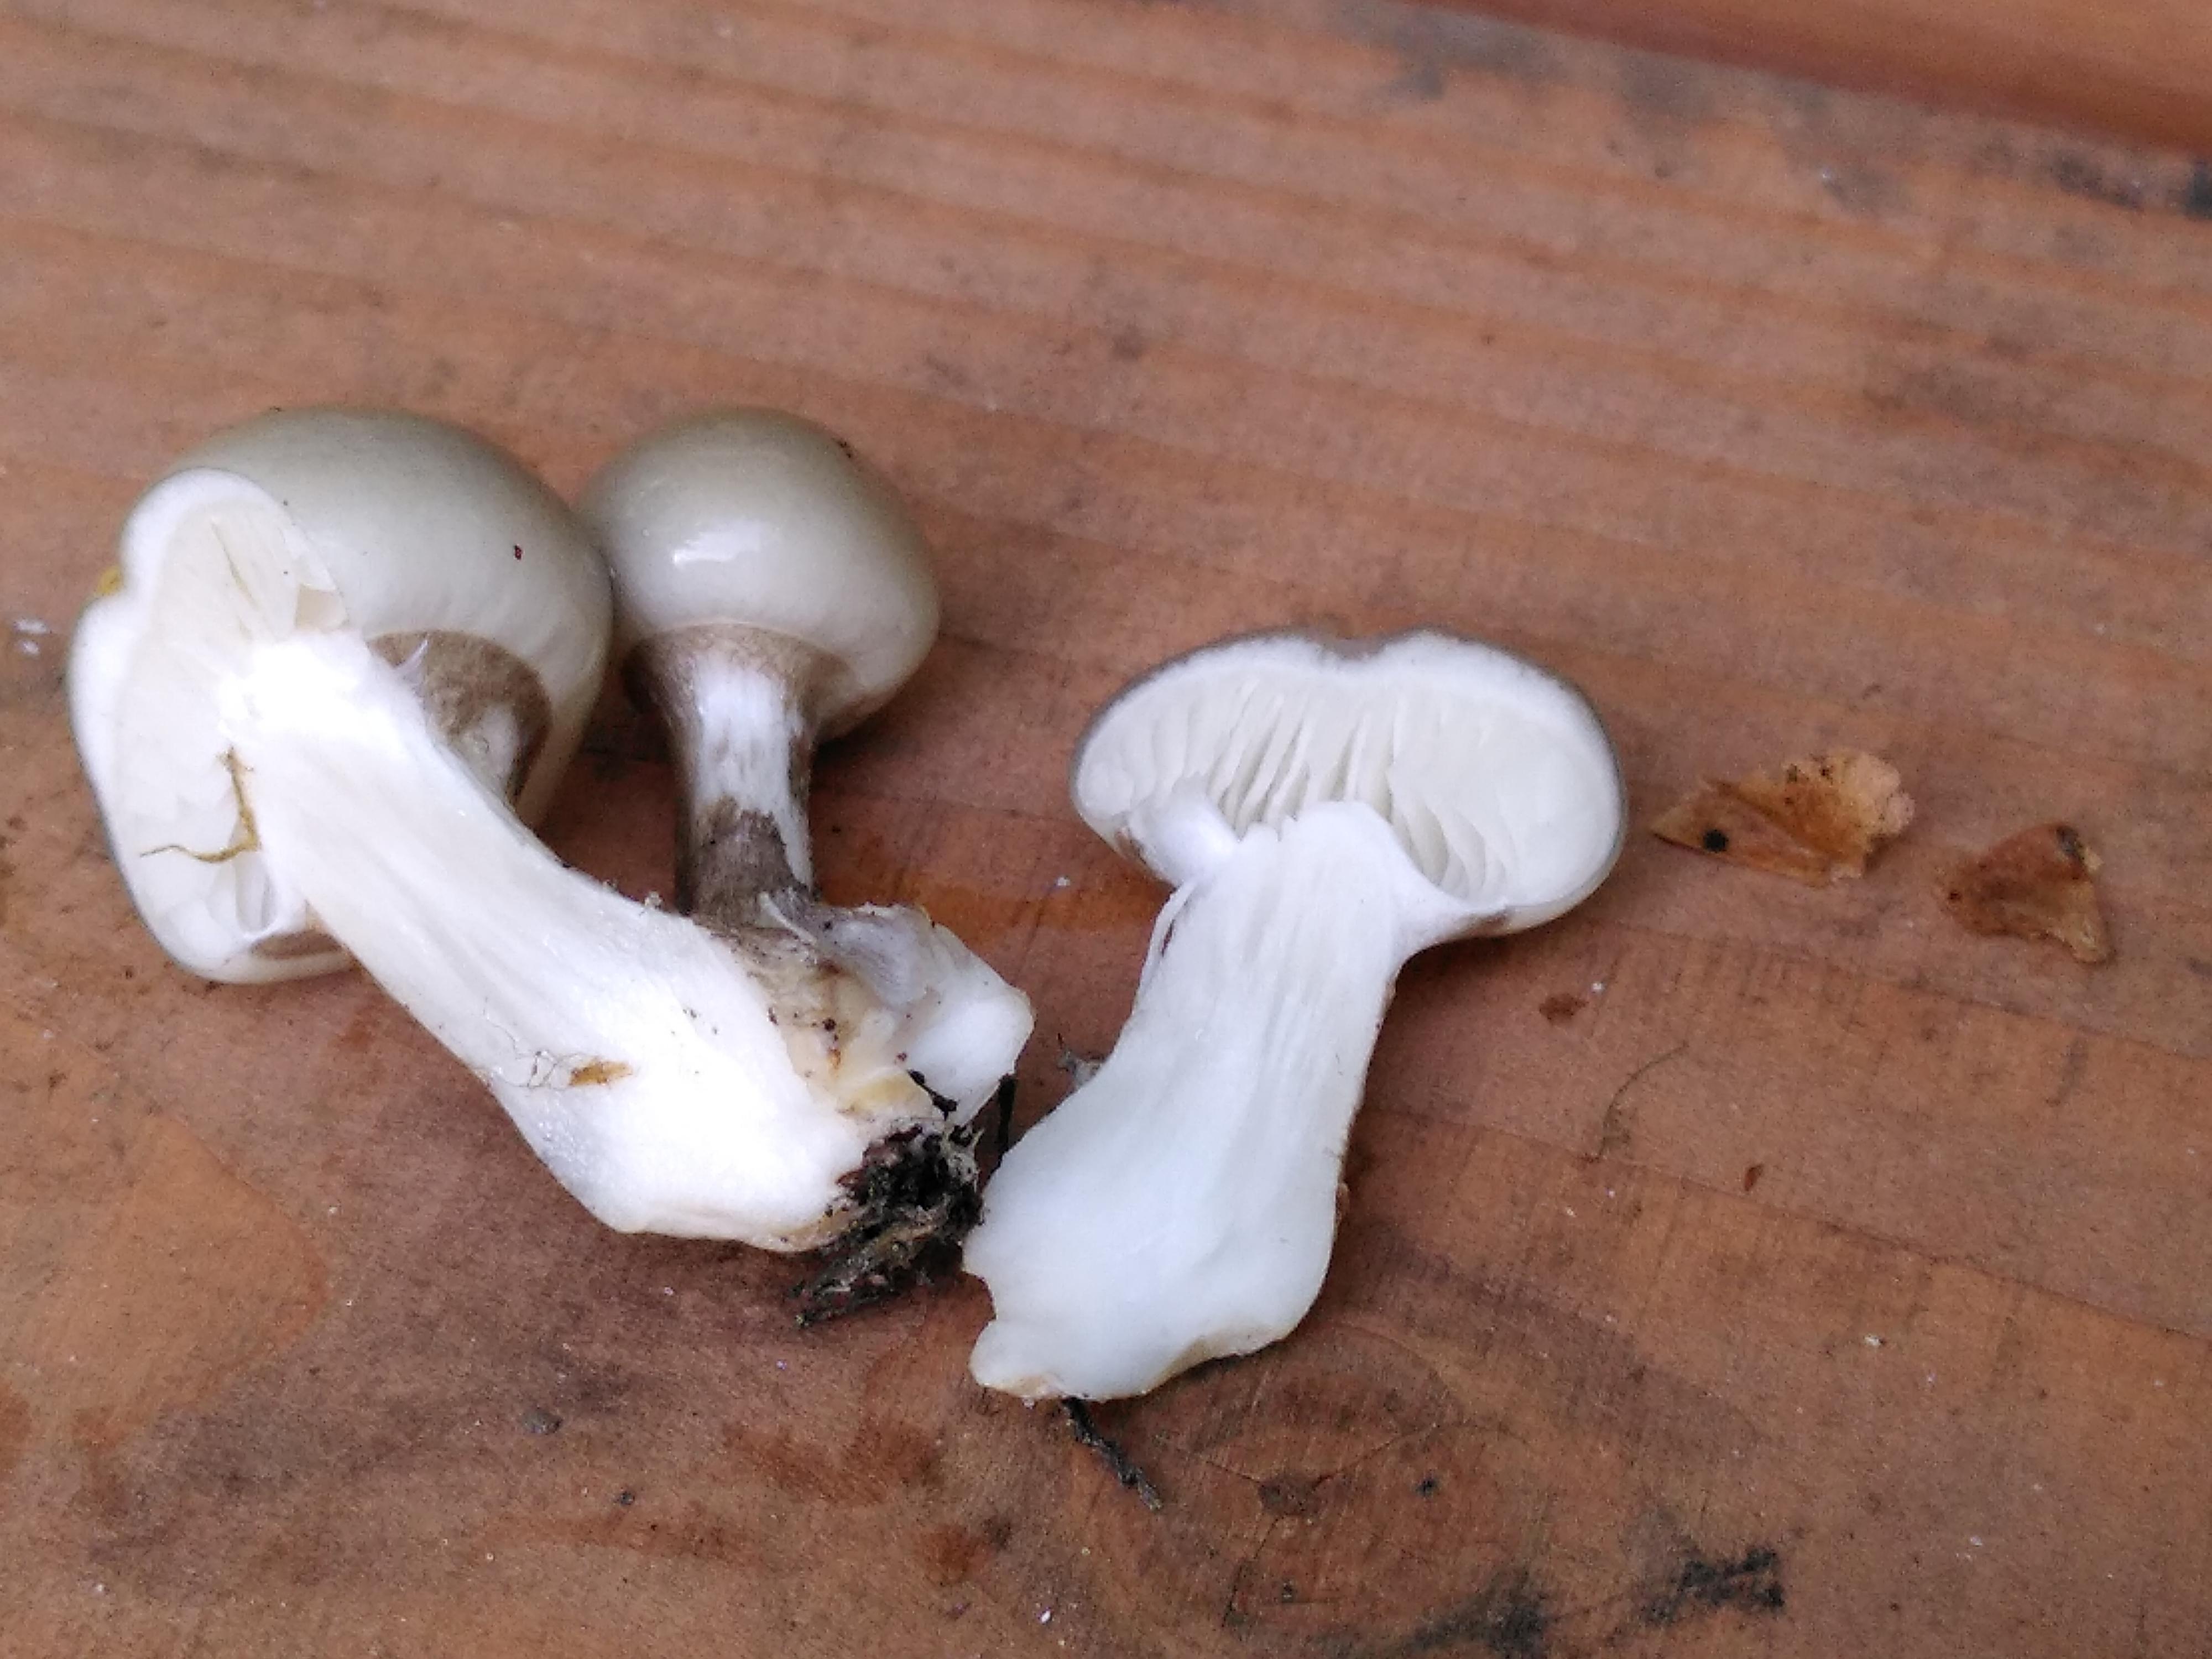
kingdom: Fungi
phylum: Basidiomycota
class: Agaricomycetes
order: Agaricales
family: Physalacriaceae
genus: Mucidula
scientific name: Mucidula mucida
